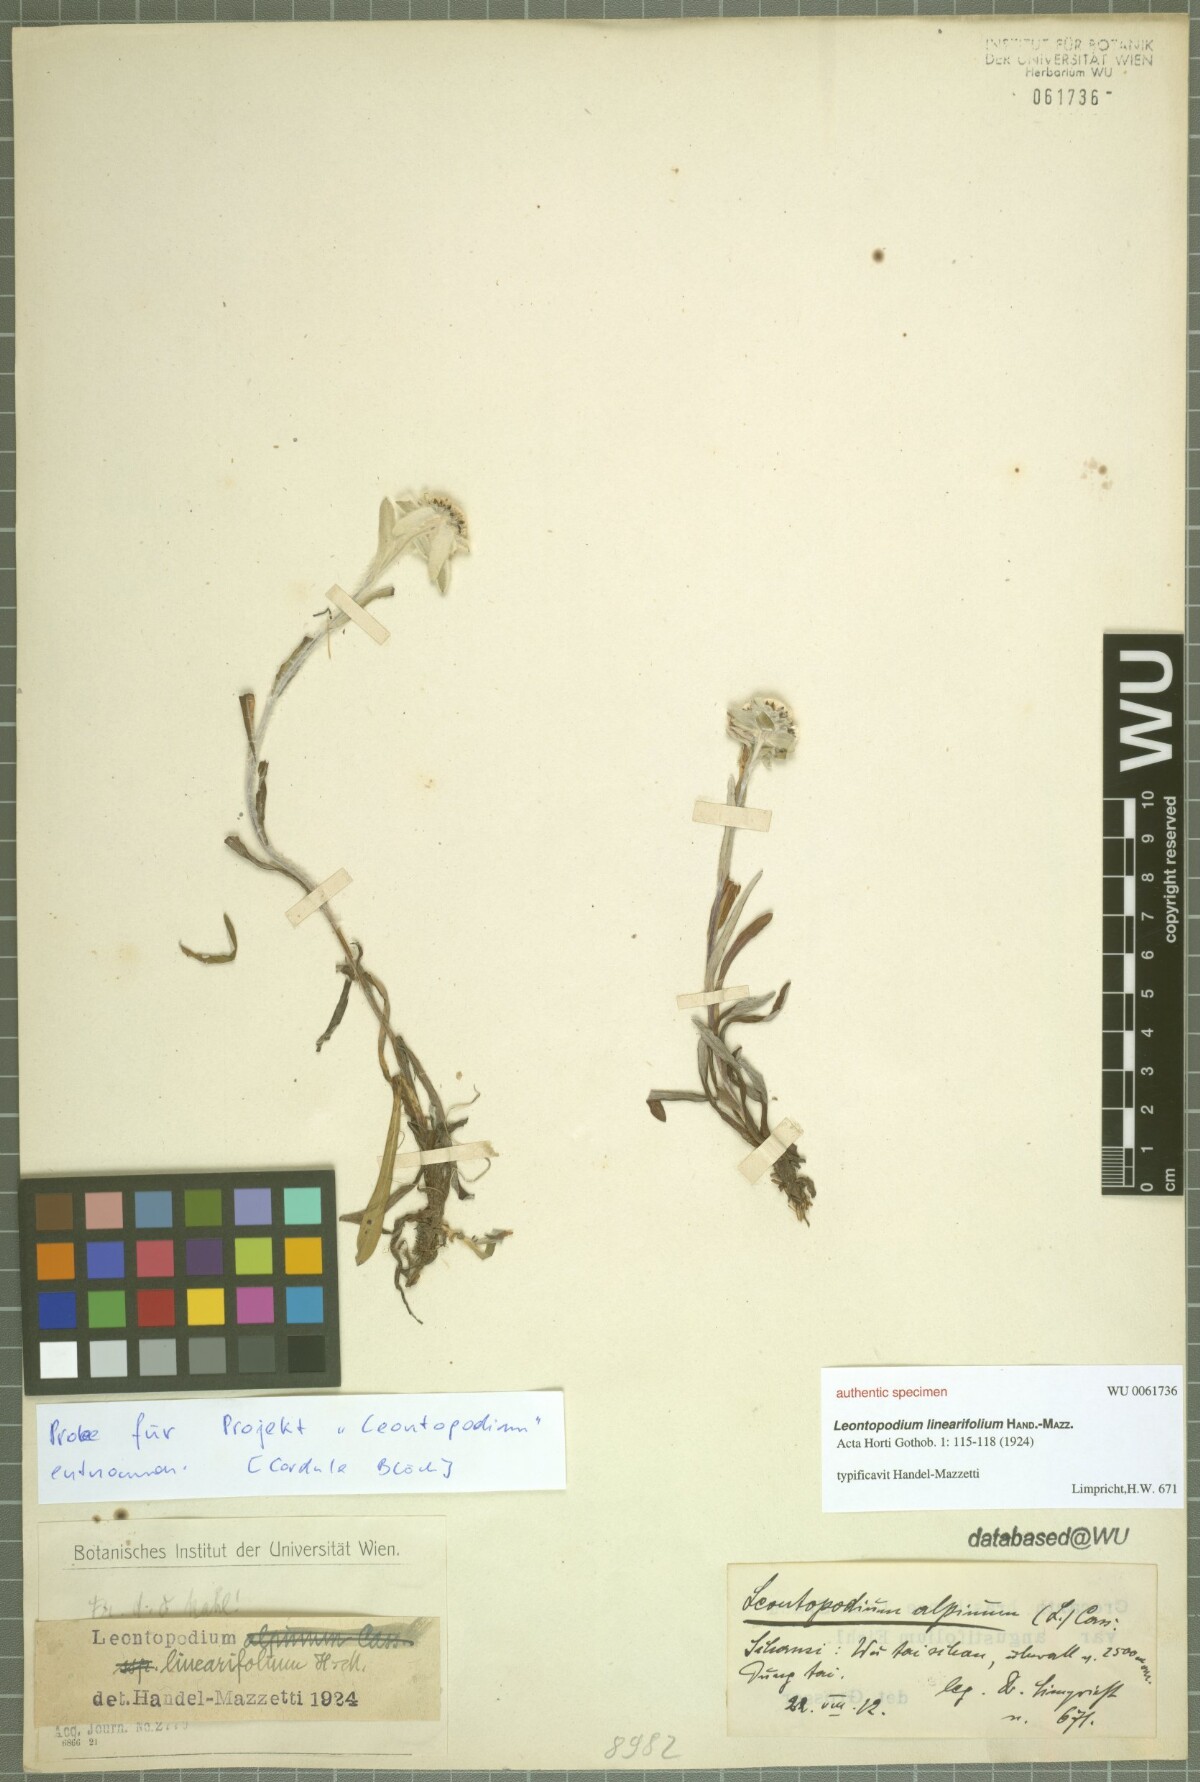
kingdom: Plantae
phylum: Tracheophyta
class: Magnoliopsida
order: Asterales
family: Asteraceae
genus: Leontopodium
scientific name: Leontopodium junpeianum
